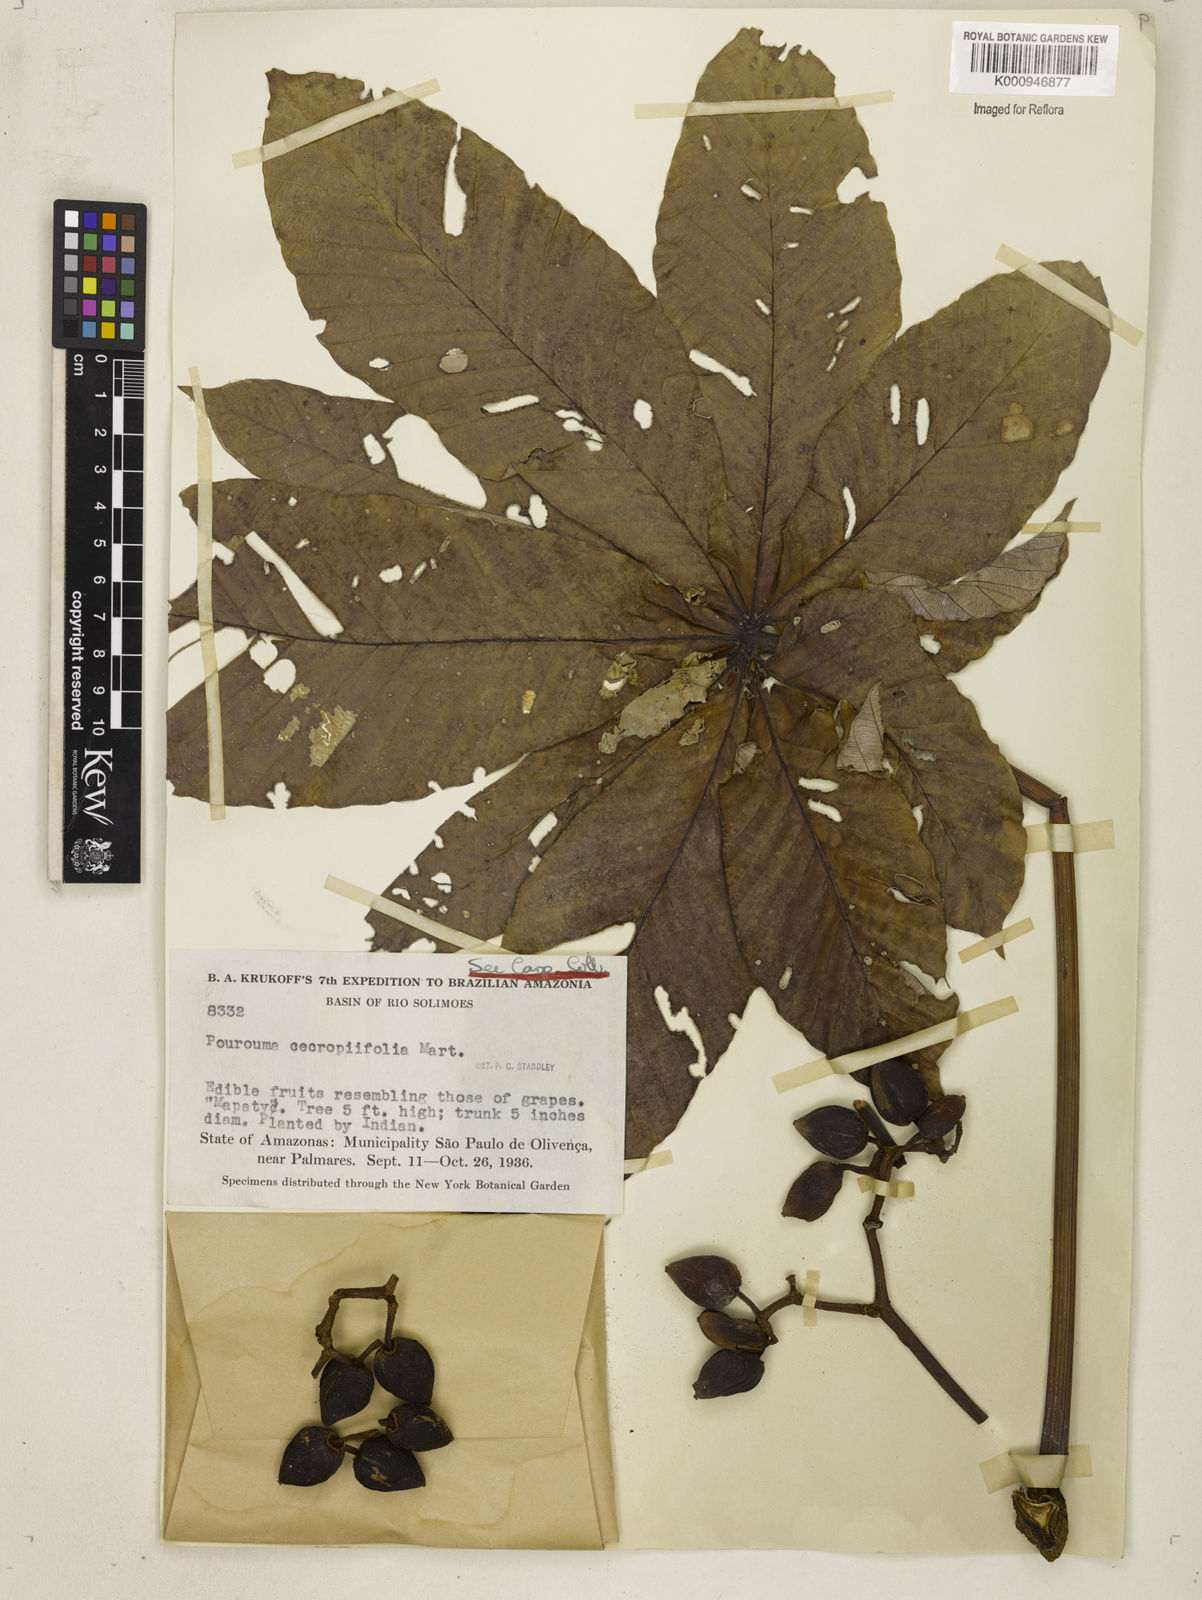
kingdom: Plantae
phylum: Tracheophyta
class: Magnoliopsida
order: Rosales
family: Urticaceae
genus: Pourouma
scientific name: Pourouma cecropiifolia
